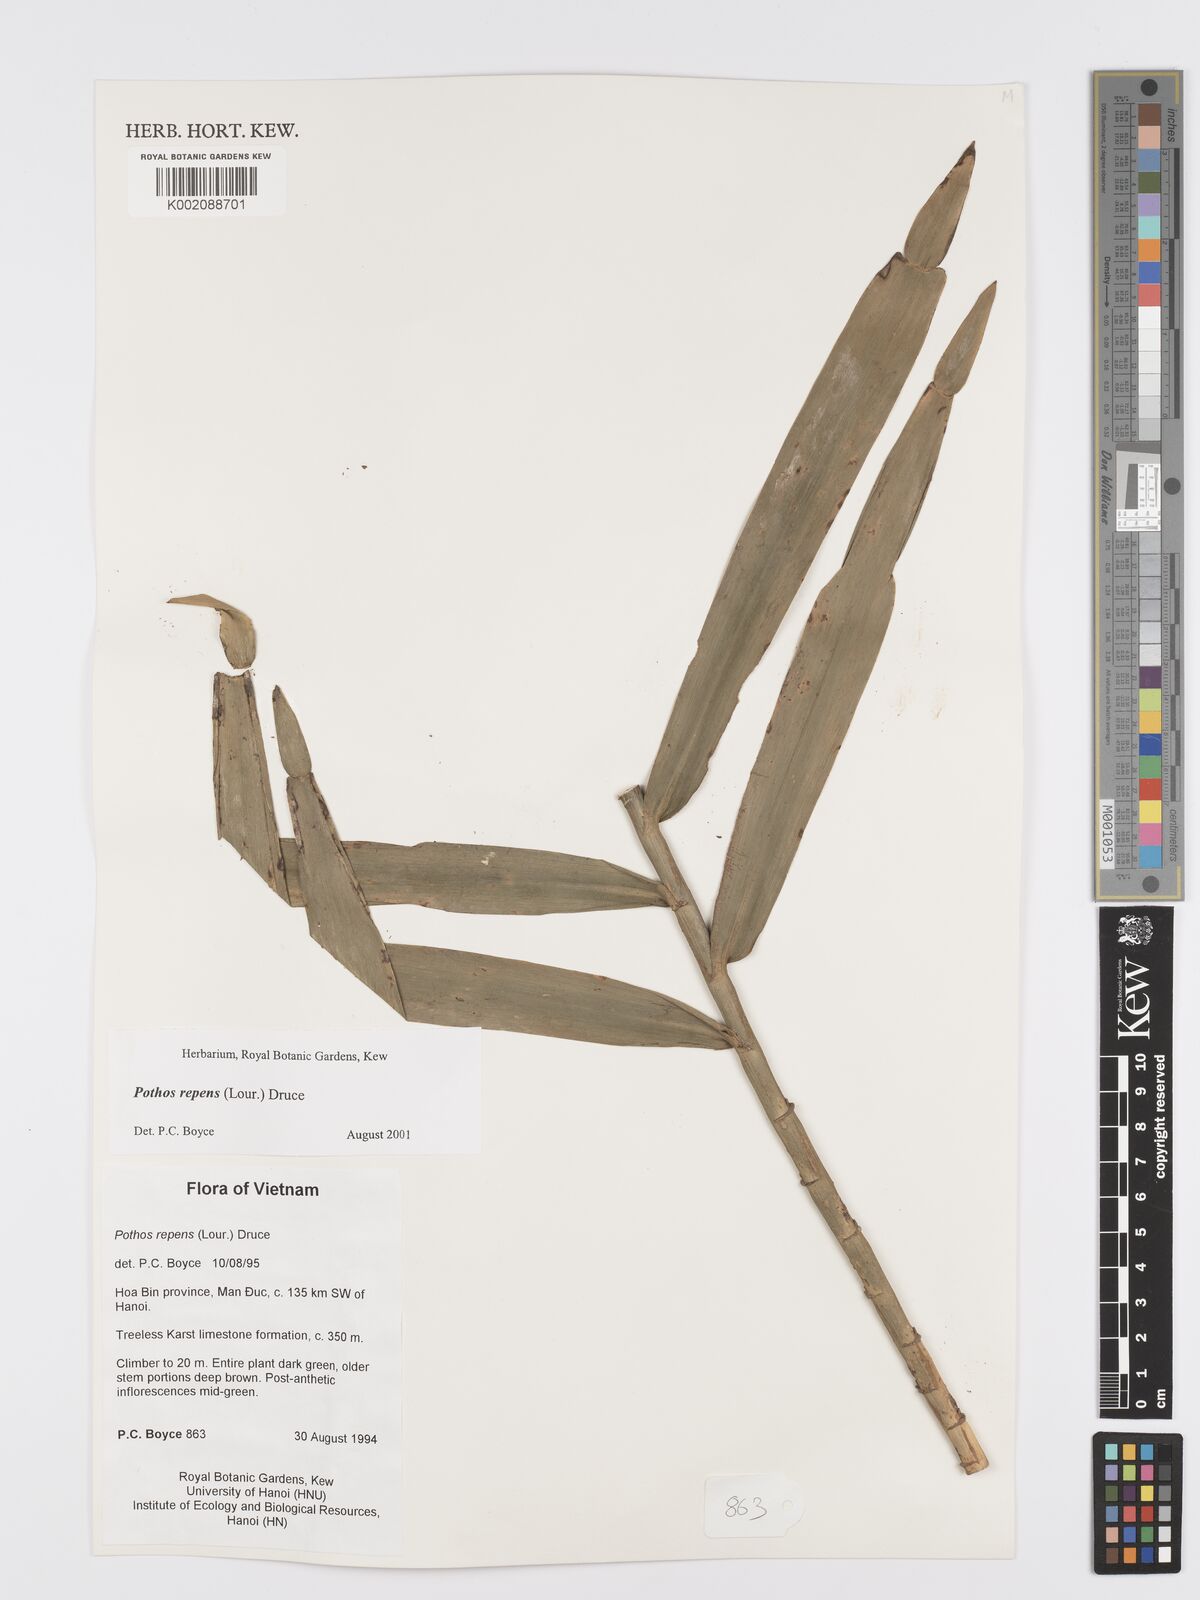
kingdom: Plantae
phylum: Tracheophyta
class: Liliopsida
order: Alismatales
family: Araceae
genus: Pothos
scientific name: Pothos repens
